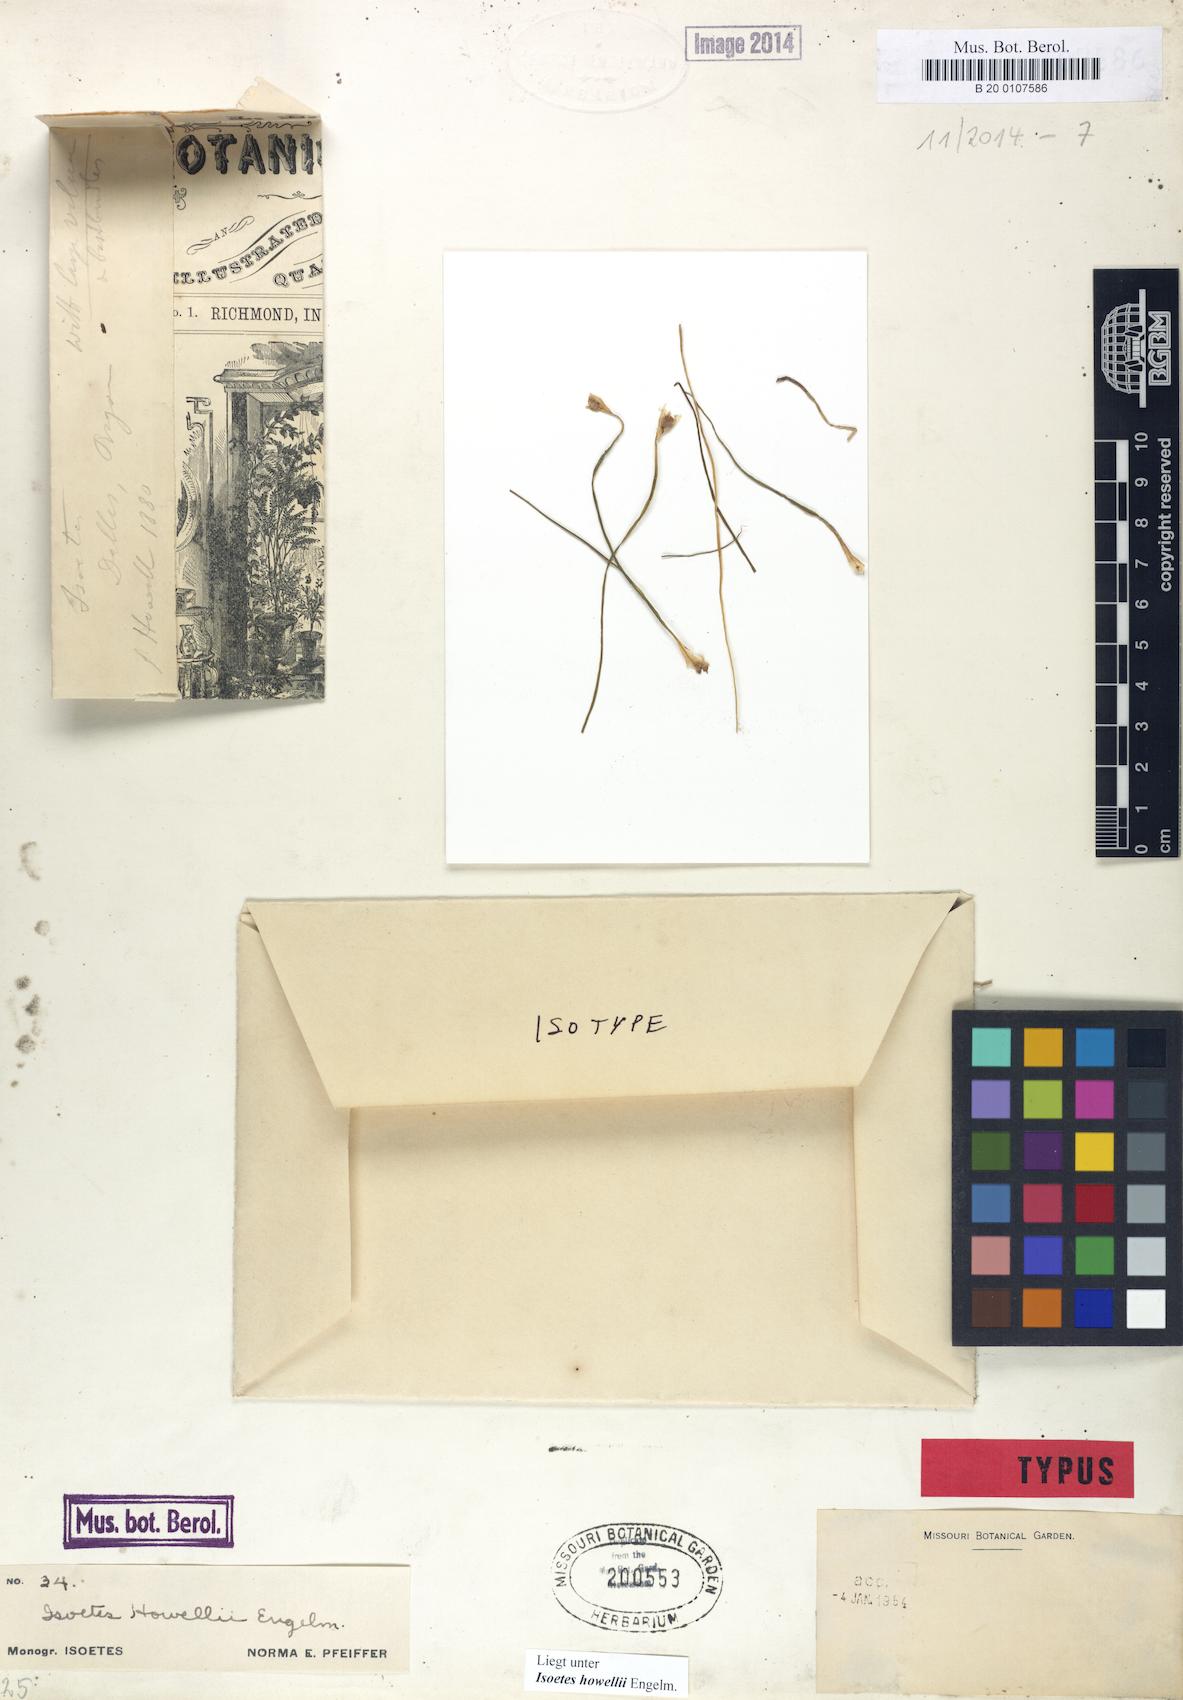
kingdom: Plantae
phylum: Tracheophyta
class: Lycopodiopsida
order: Isoetales
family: Isoetaceae
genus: Isoetes
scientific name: Isoetes howellii
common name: Howell's quillwort
